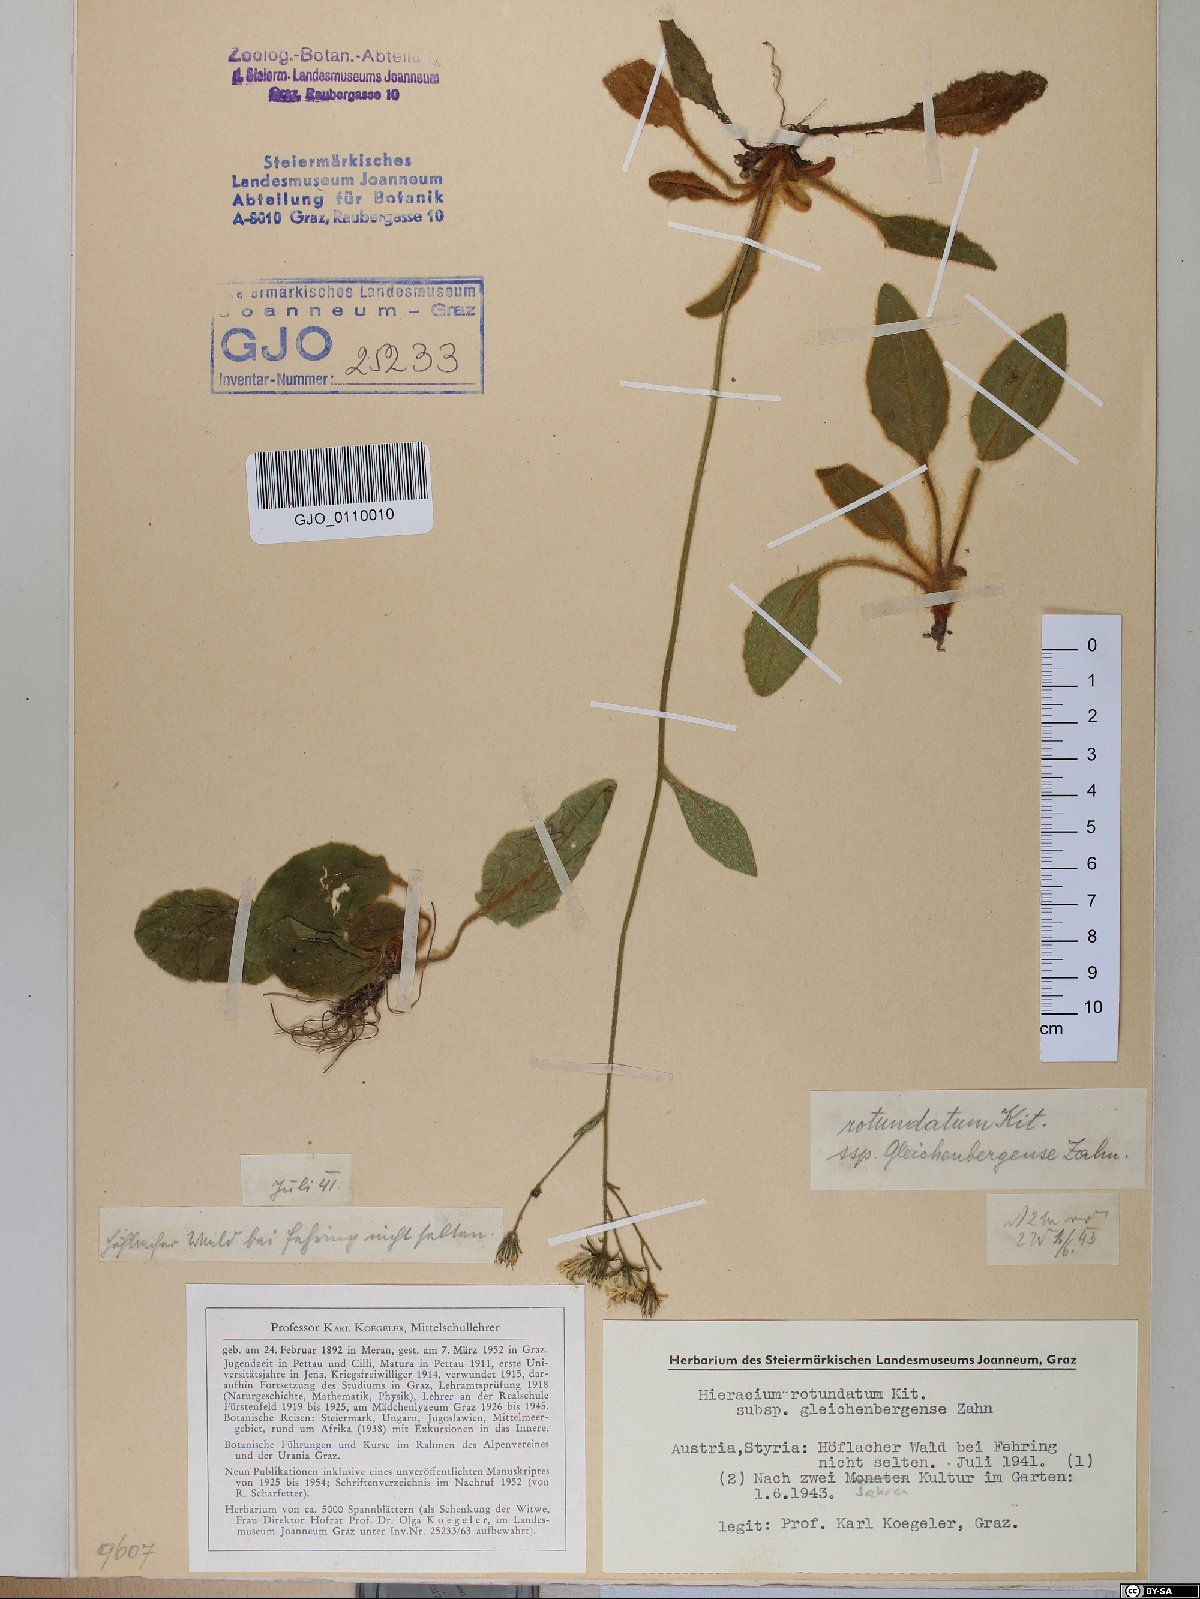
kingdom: Plantae
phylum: Tracheophyta
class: Magnoliopsida
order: Asterales
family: Asteraceae
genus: Hieracium
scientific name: Hieracium rotundatum
